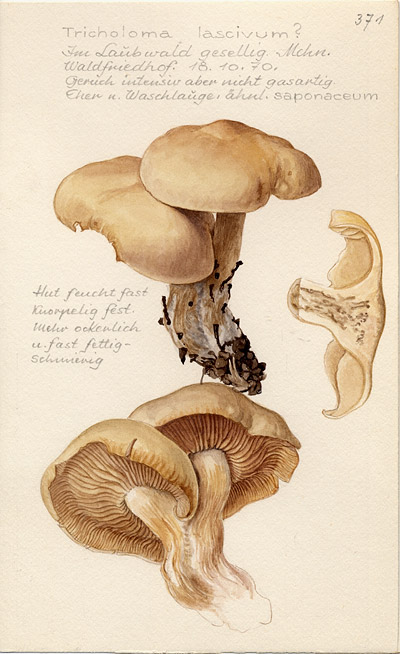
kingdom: Fungi
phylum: Basidiomycota
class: Agaricomycetes
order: Agaricales
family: Tricholomataceae
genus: Tricholoma
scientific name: Tricholoma lascivum
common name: Aromatic knight
